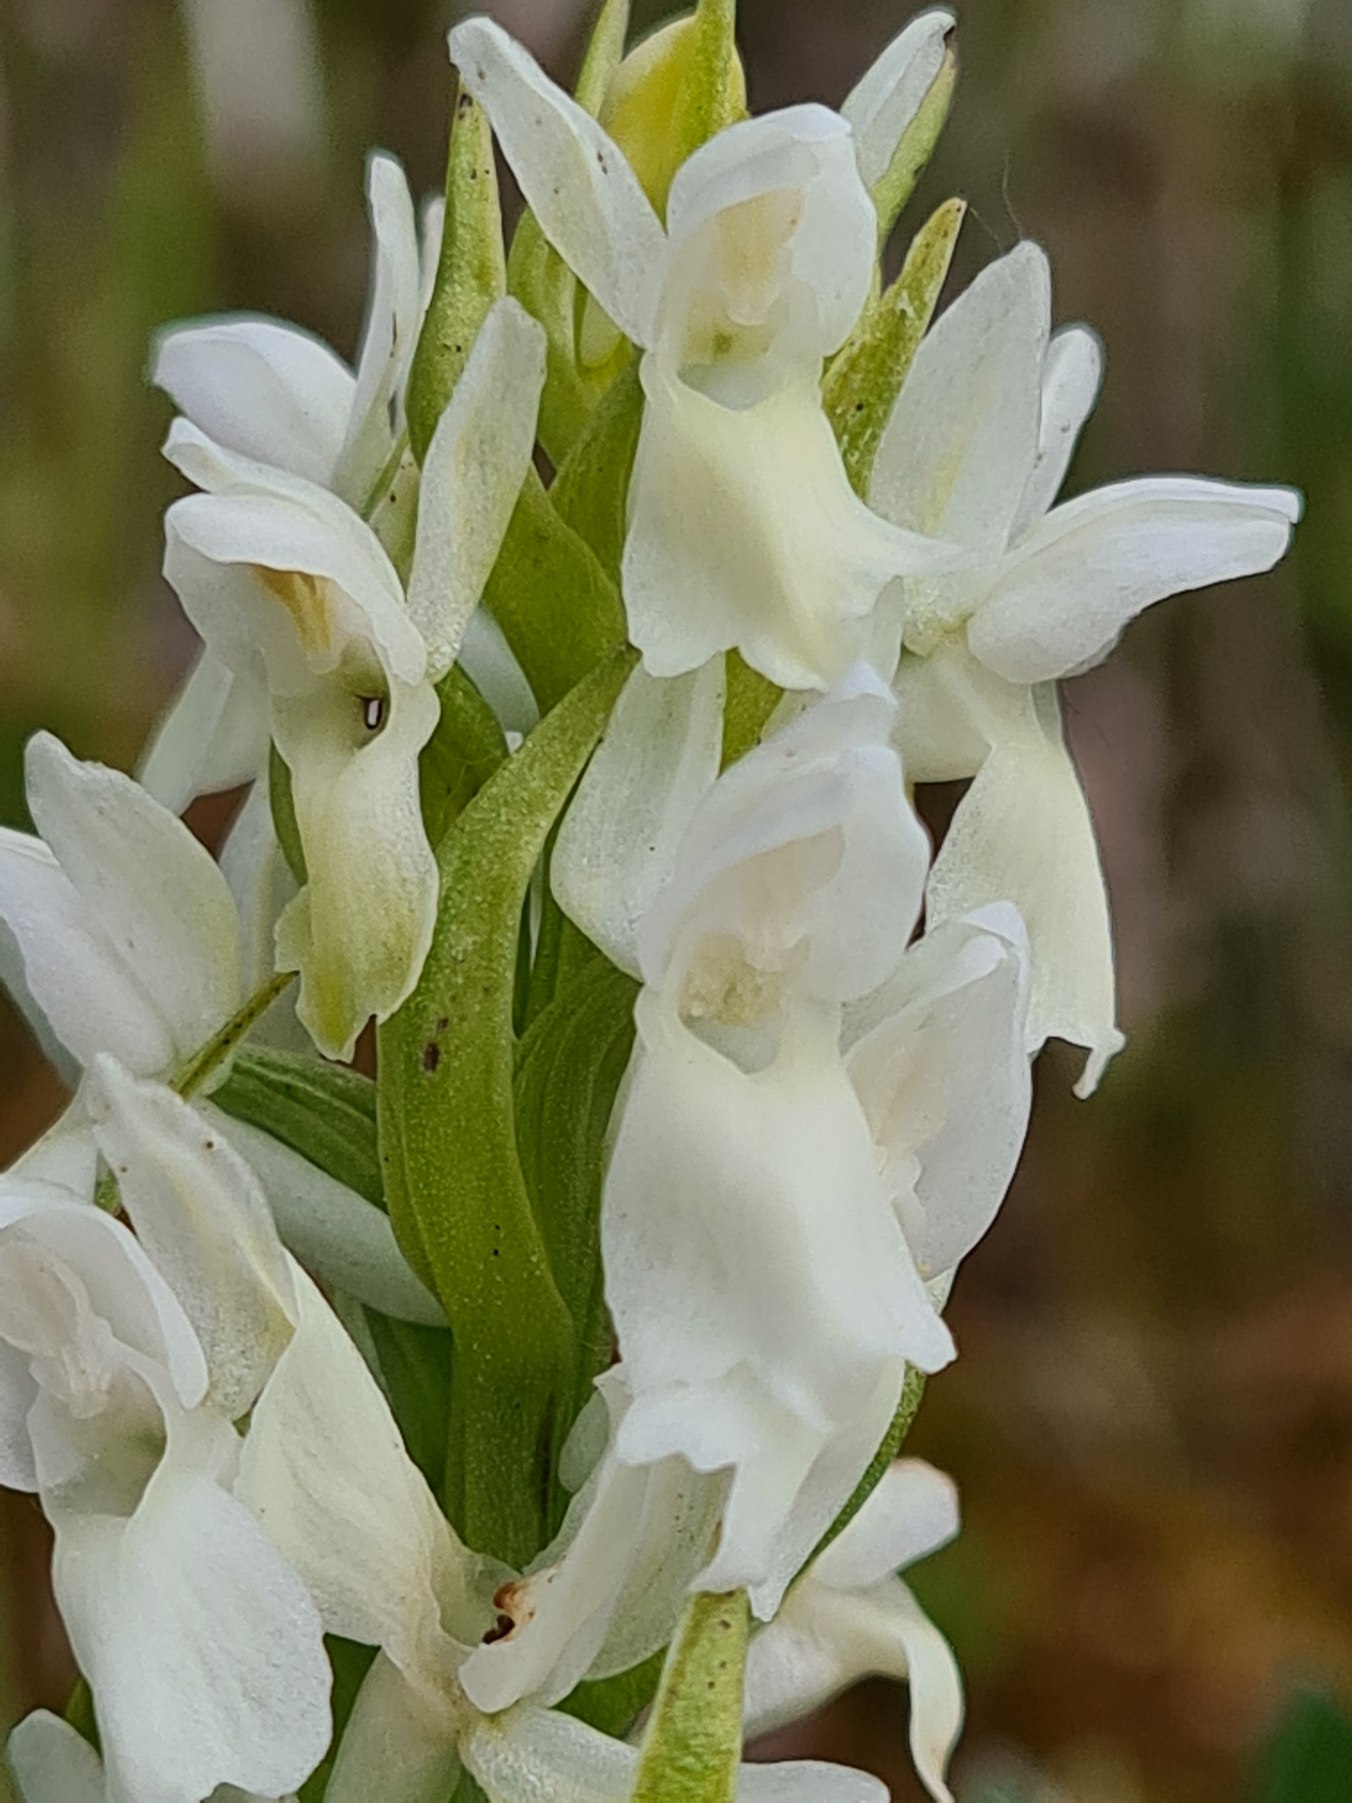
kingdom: Plantae
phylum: Tracheophyta
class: Liliopsida
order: Asparagales
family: Orchidaceae
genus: Dactylorhiza
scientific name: Dactylorhiza incarnata
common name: Hvidgul gøgeurt
